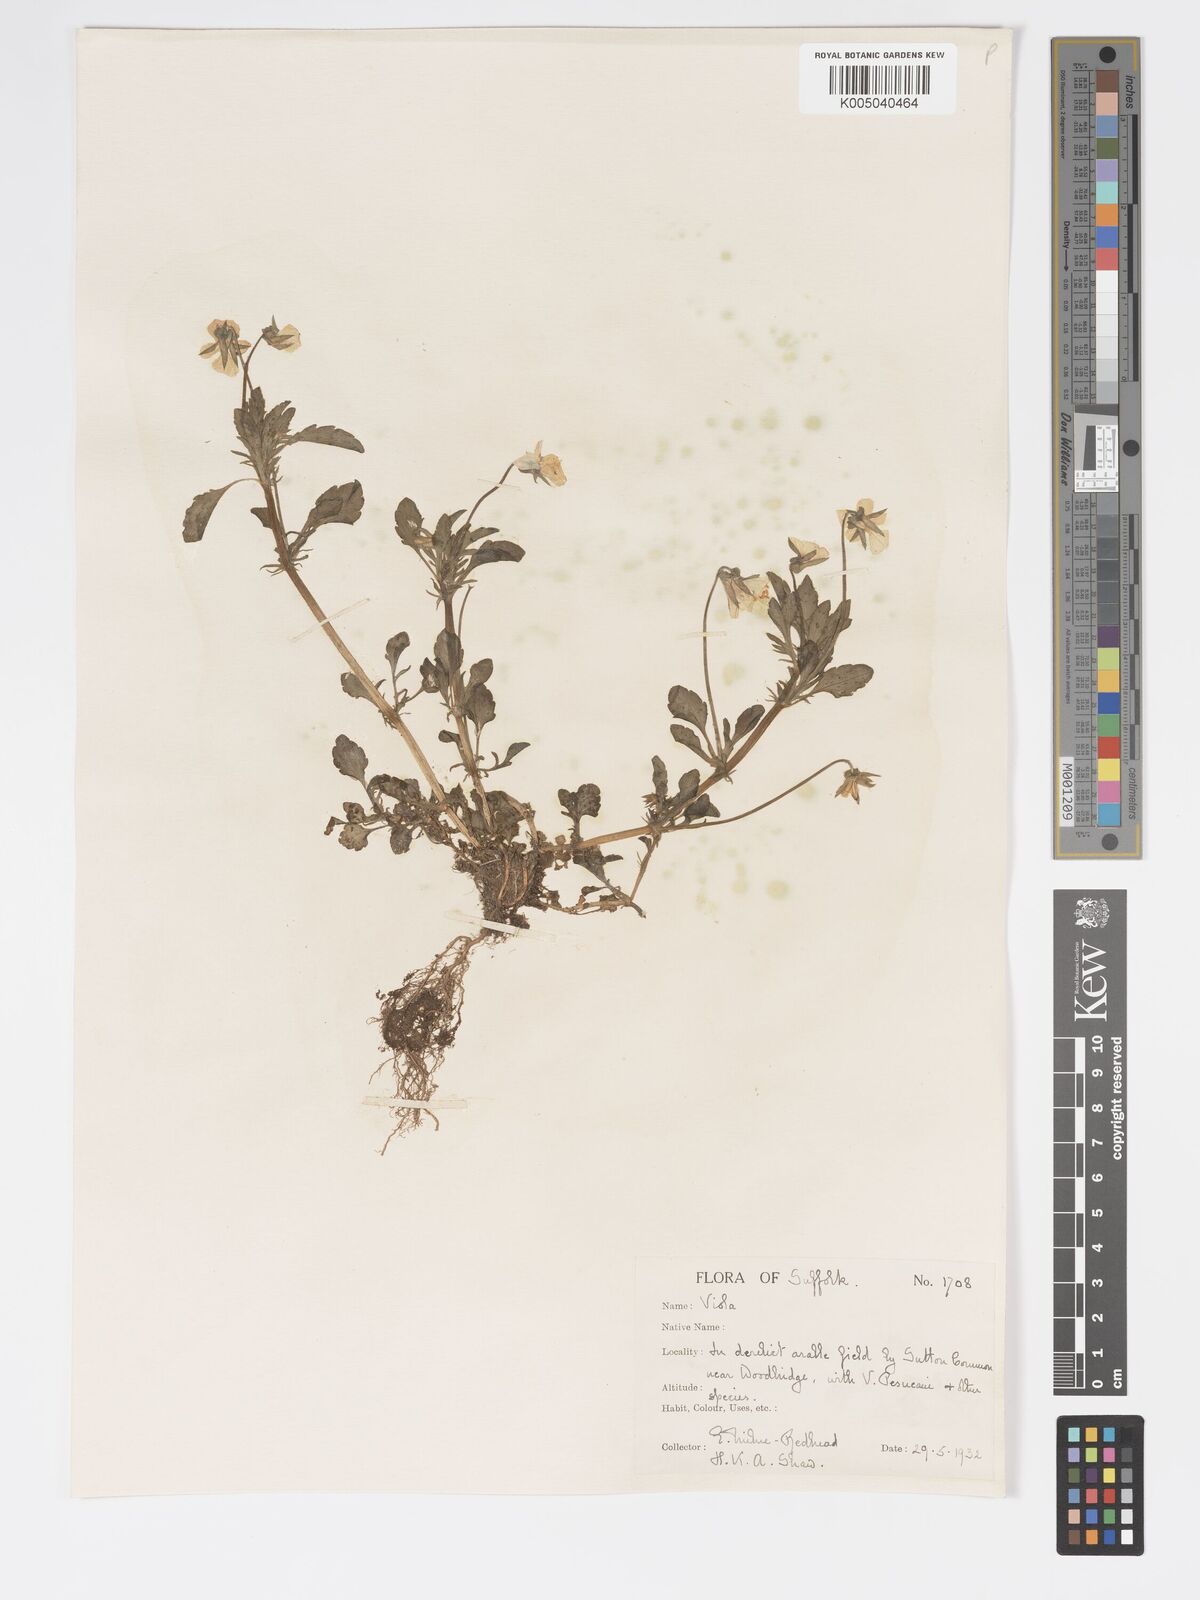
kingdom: Plantae
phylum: Tracheophyta
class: Magnoliopsida
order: Malpighiales
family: Violaceae
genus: Viola
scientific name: Viola arvensis
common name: Field pansy
